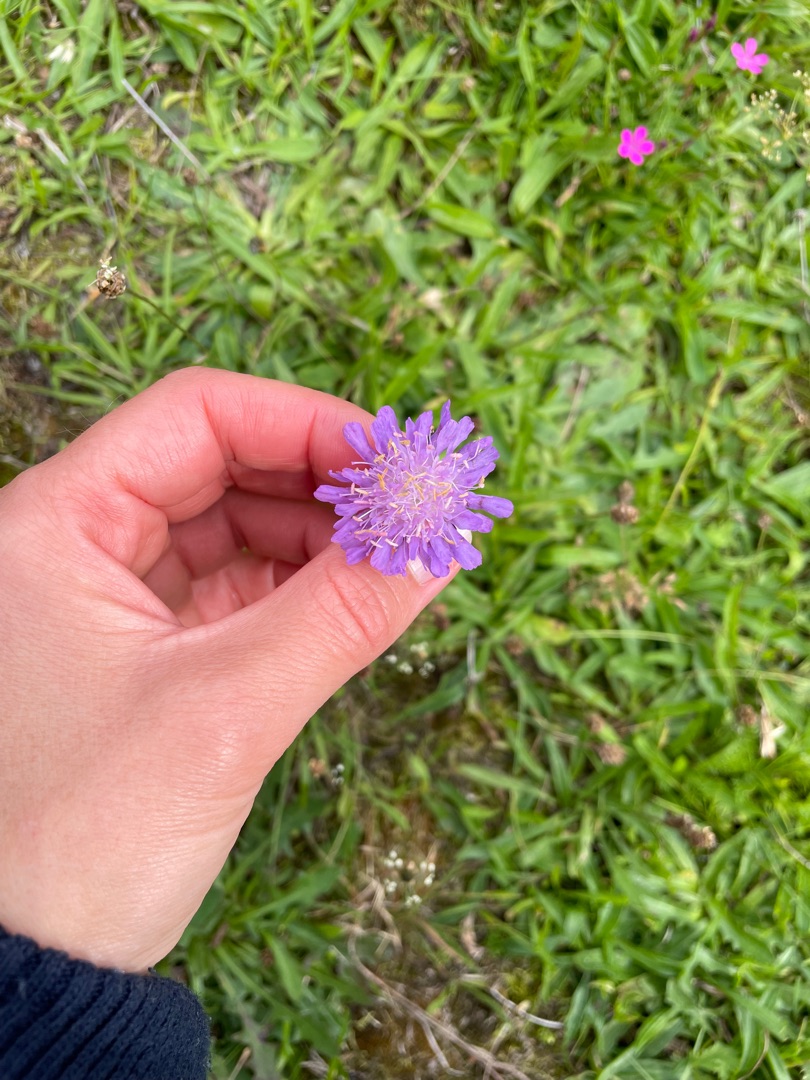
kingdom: Plantae
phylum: Tracheophyta
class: Magnoliopsida
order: Dipsacales
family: Caprifoliaceae
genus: Knautia
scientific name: Knautia arvensis
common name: Blåhat
